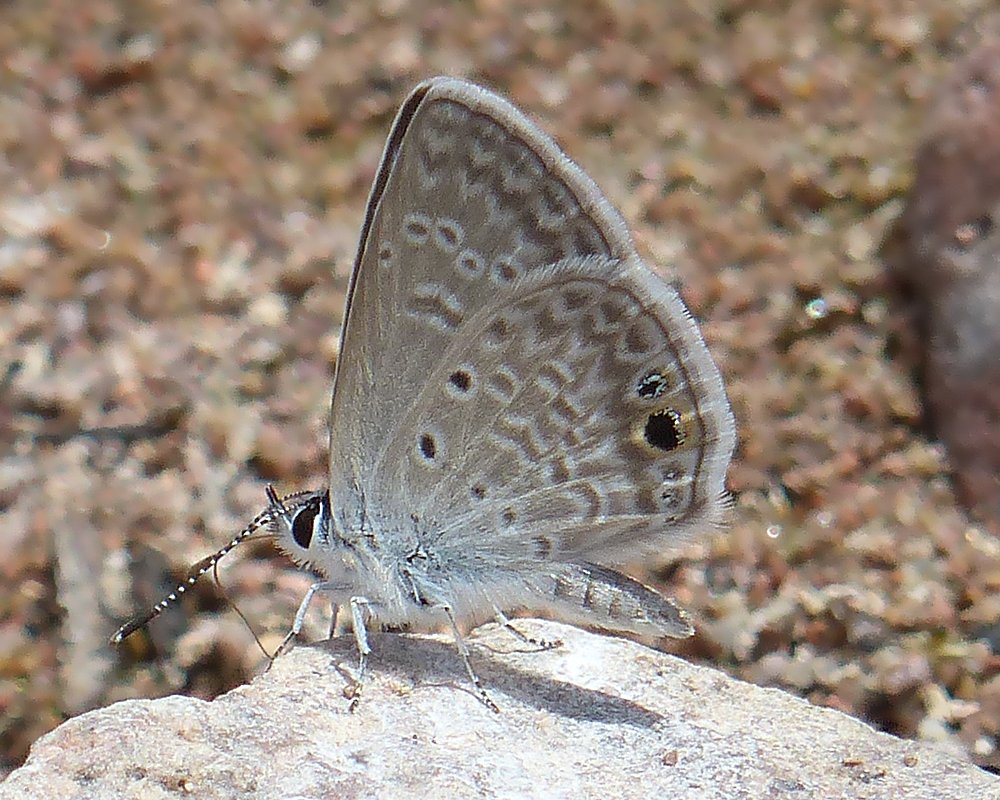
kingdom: Animalia
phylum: Arthropoda
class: Insecta
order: Lepidoptera
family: Lycaenidae
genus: Hemiargus
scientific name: Hemiargus ceraunus
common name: Ceraunus Blue
